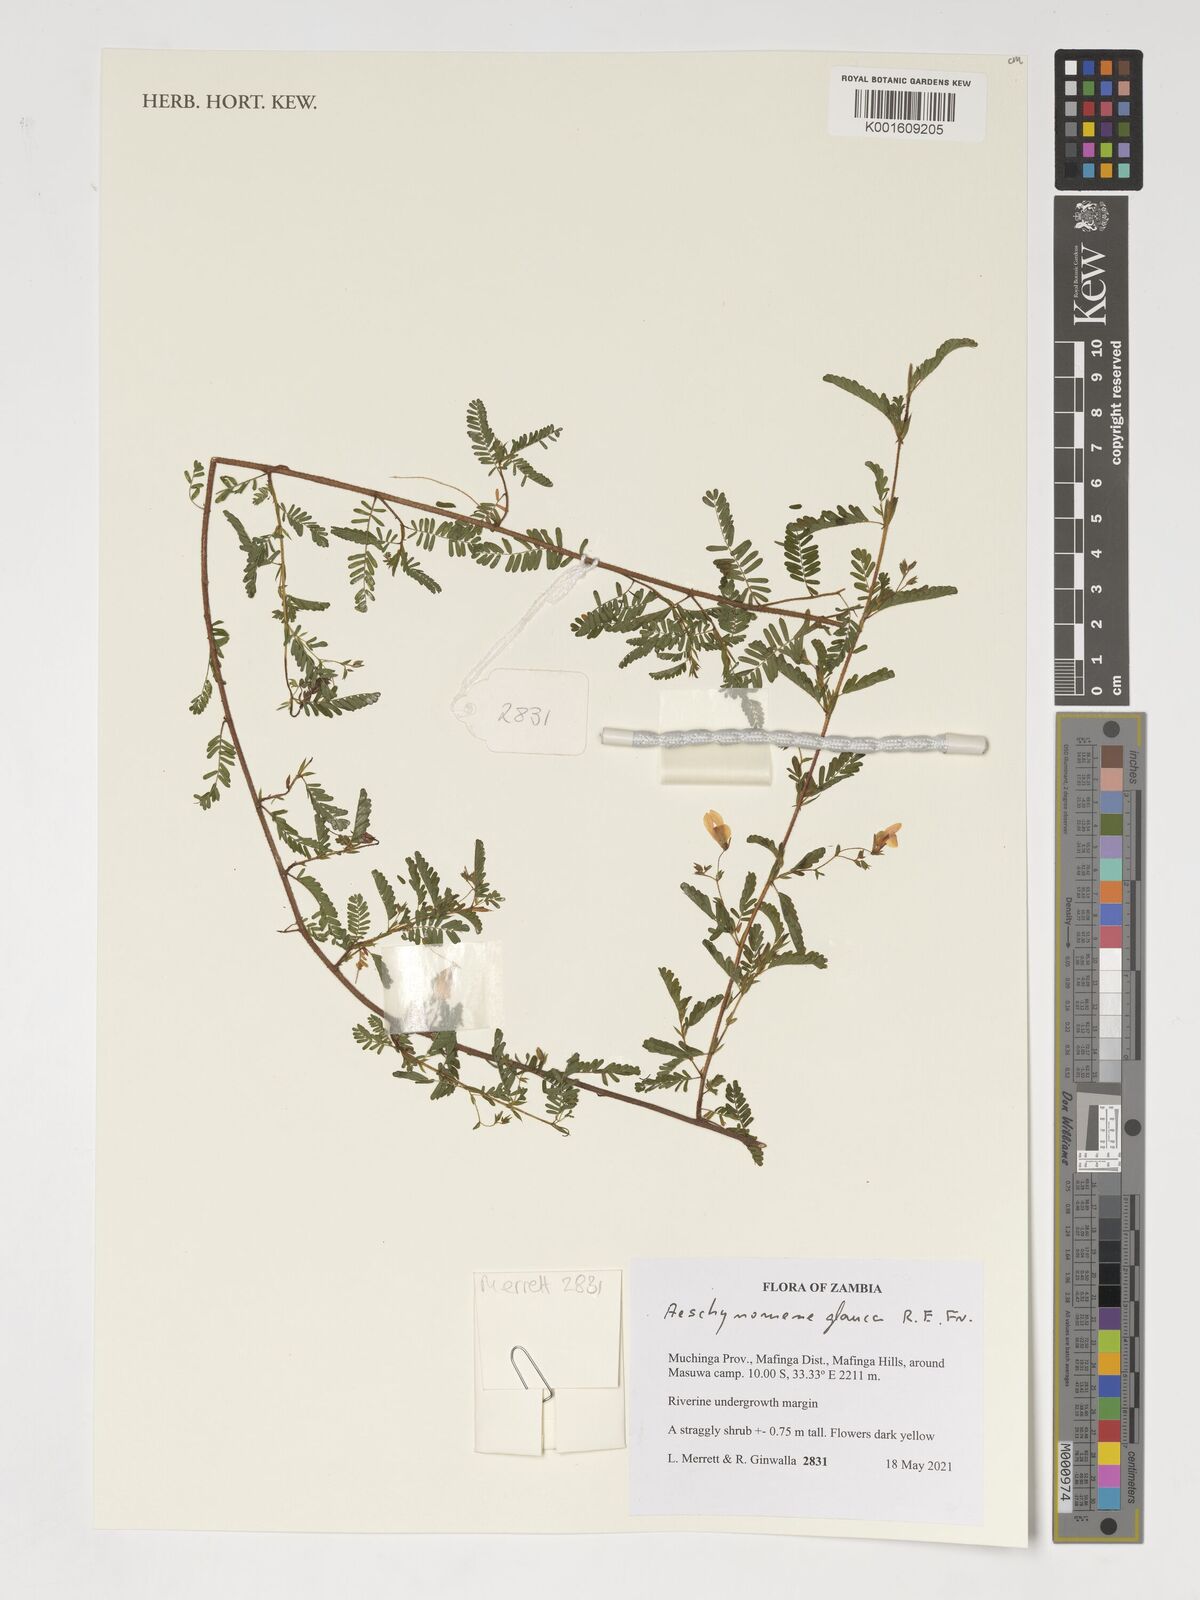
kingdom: Plantae
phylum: Tracheophyta
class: Magnoliopsida
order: Fabales
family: Fabaceae
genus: Aeschynomene
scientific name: Aeschynomene glauca
